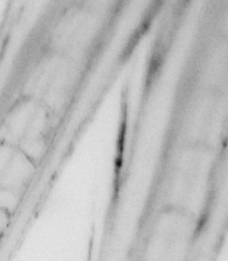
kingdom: Animalia
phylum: Chordata
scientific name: Chordata
